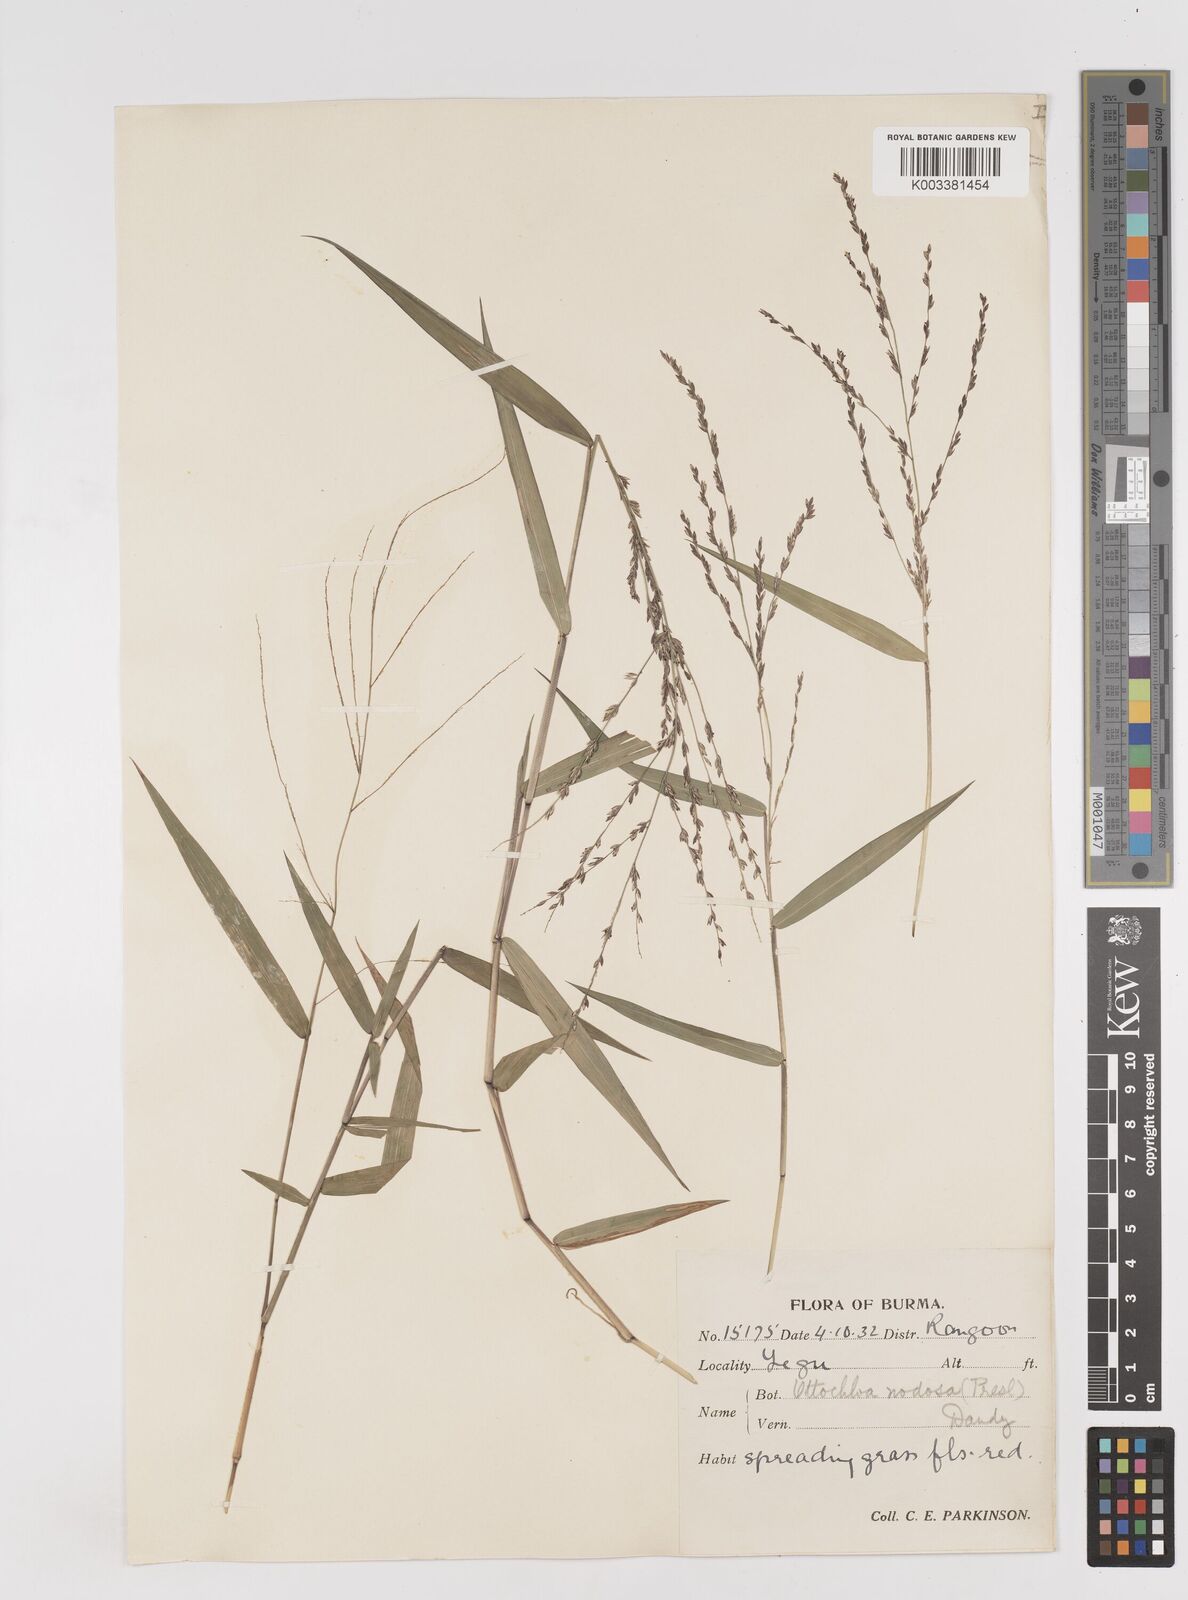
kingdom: Plantae
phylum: Tracheophyta
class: Liliopsida
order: Poales
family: Poaceae
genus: Ottochloa
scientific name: Ottochloa nodosa
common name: Slender-panic grass
